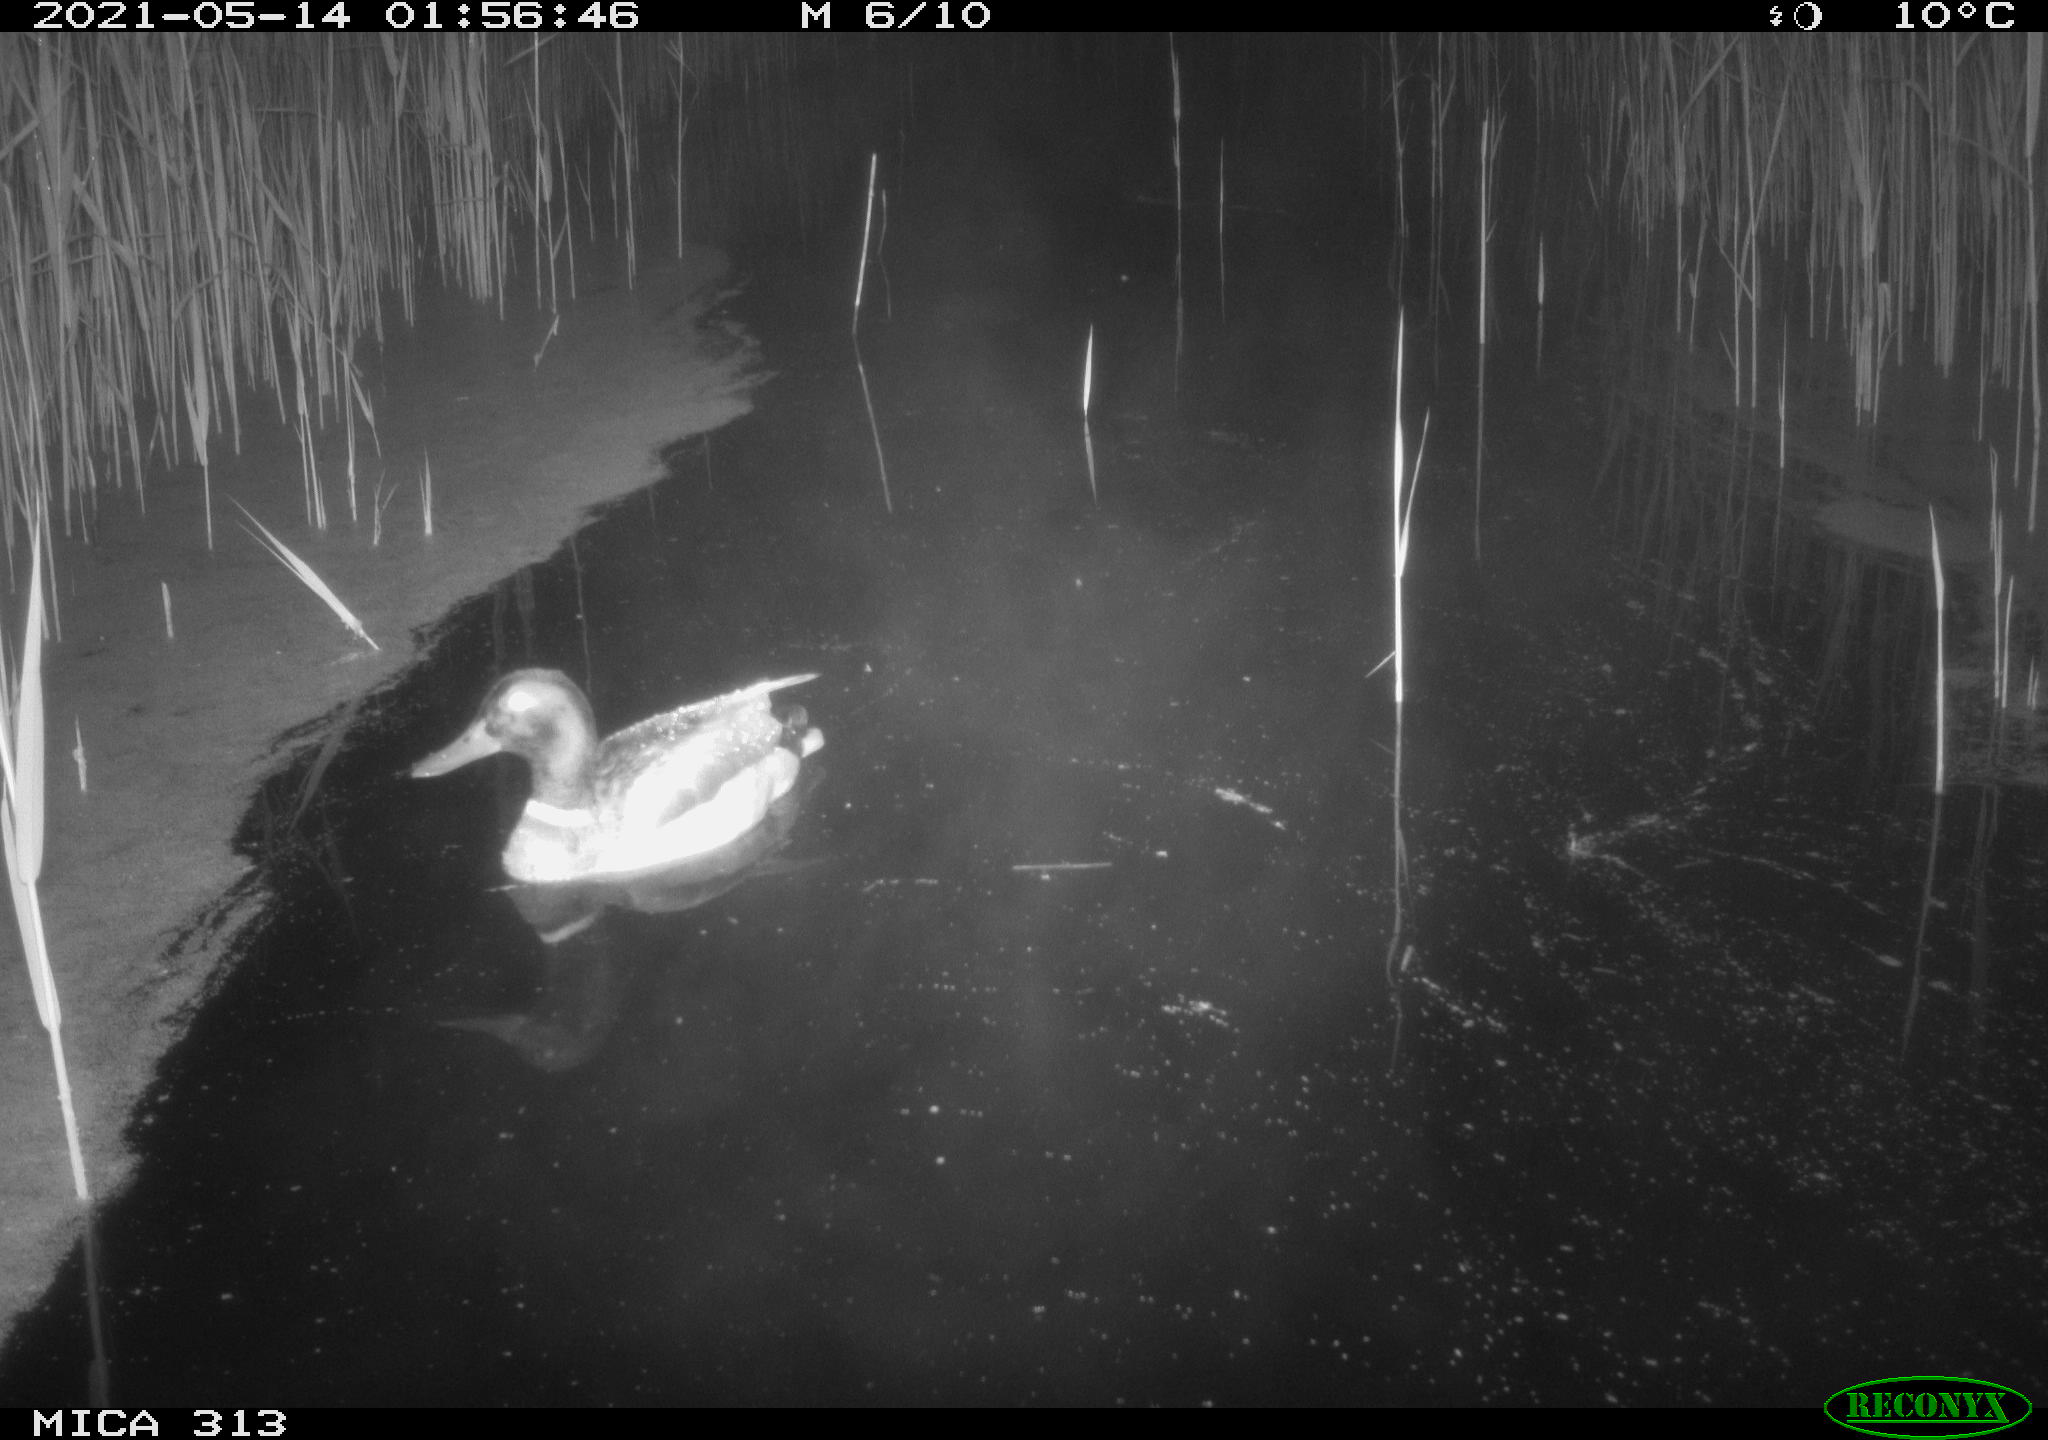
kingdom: Animalia
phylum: Chordata
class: Aves
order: Anseriformes
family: Anatidae
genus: Anas
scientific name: Anas platyrhynchos
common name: Mallard
